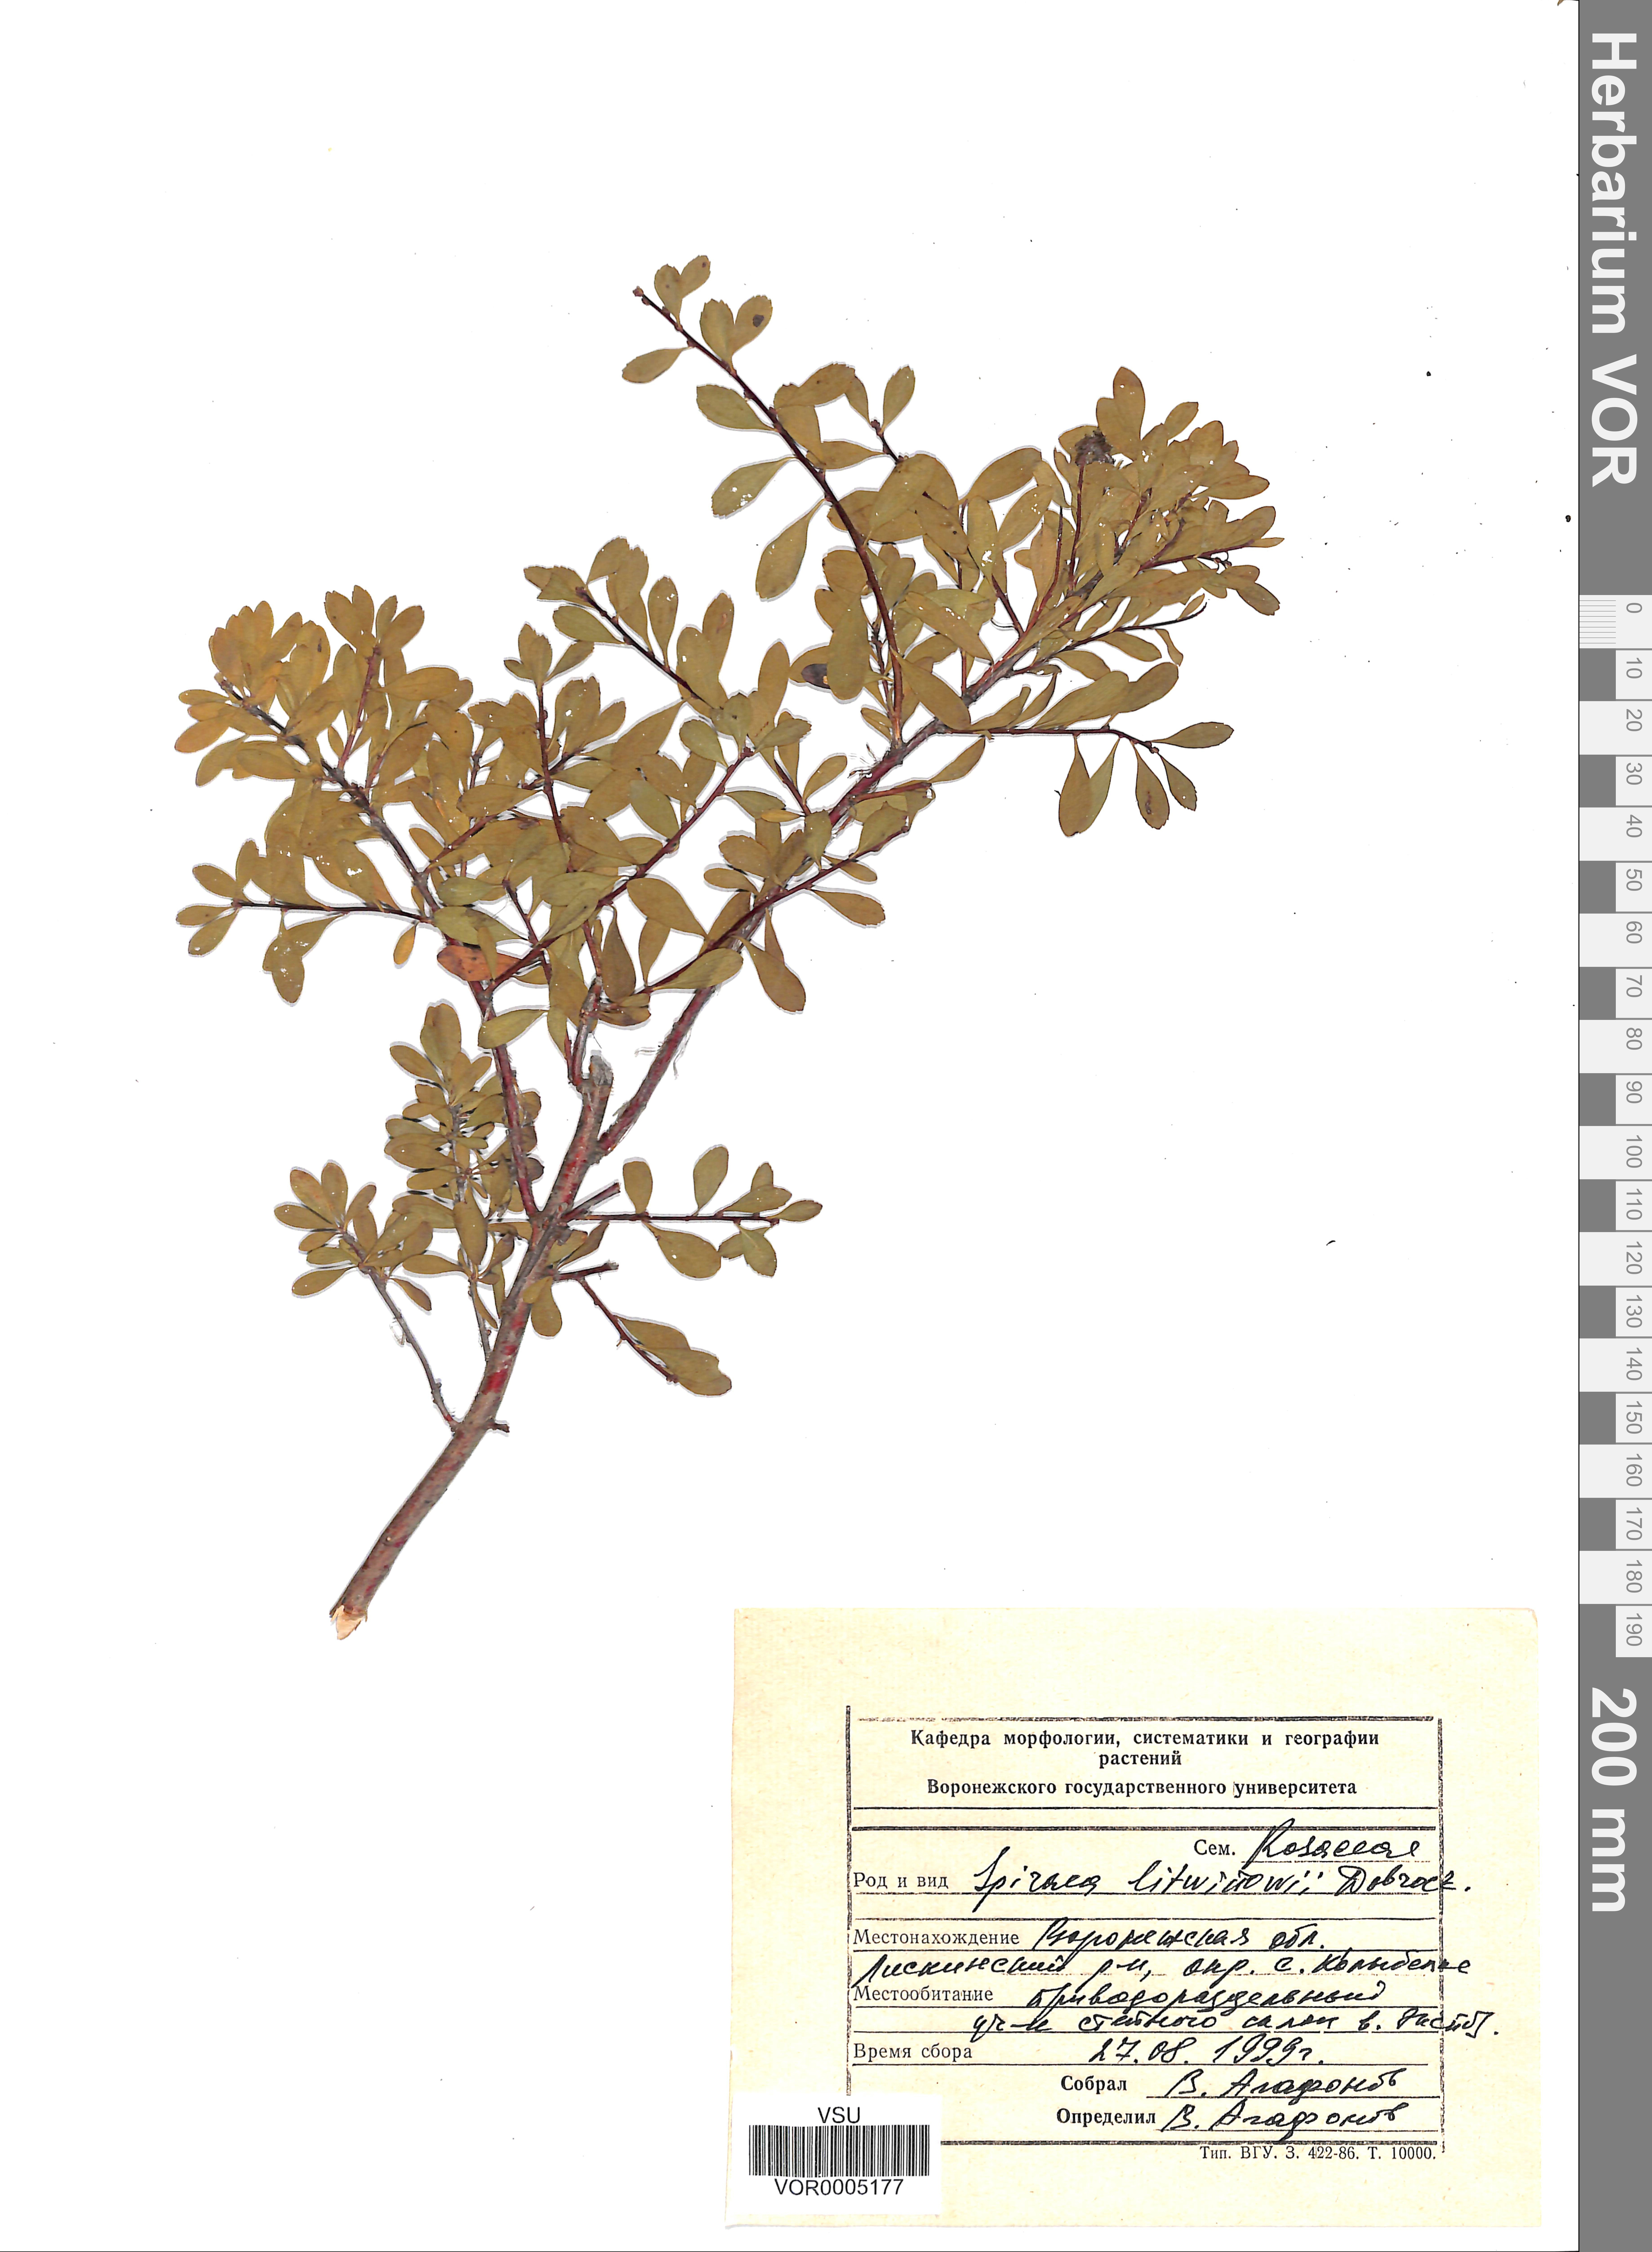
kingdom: Plantae
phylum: Tracheophyta
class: Magnoliopsida
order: Rosales
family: Rosaceae
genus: Spiraea
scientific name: Spiraea crenata
